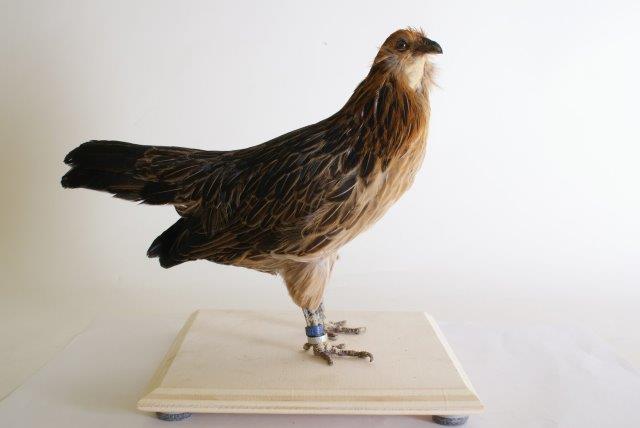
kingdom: Animalia
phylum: Chordata
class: Aves
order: Galliformes
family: Phasianidae
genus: Gallus
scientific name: Gallus gallus
